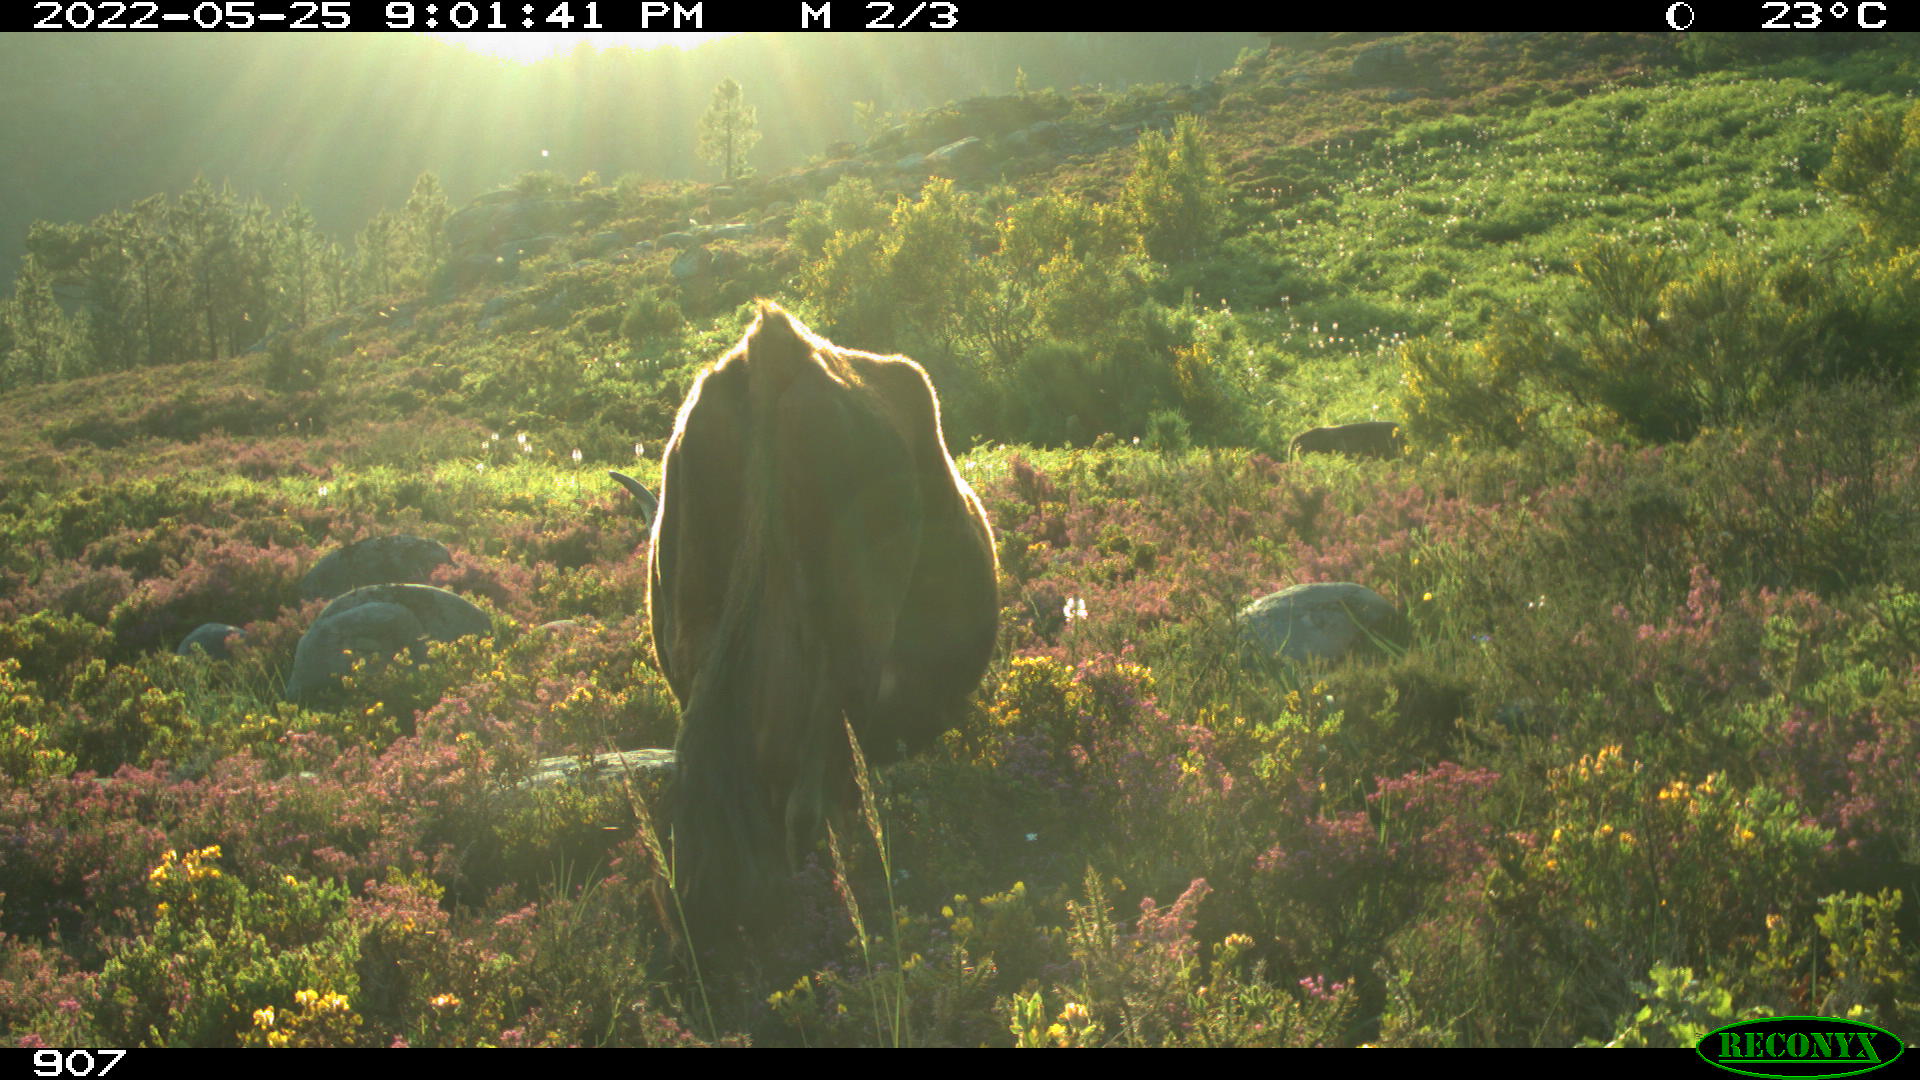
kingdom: Animalia
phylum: Chordata
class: Mammalia
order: Artiodactyla
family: Bovidae
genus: Bos
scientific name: Bos taurus
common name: Domesticated cattle
